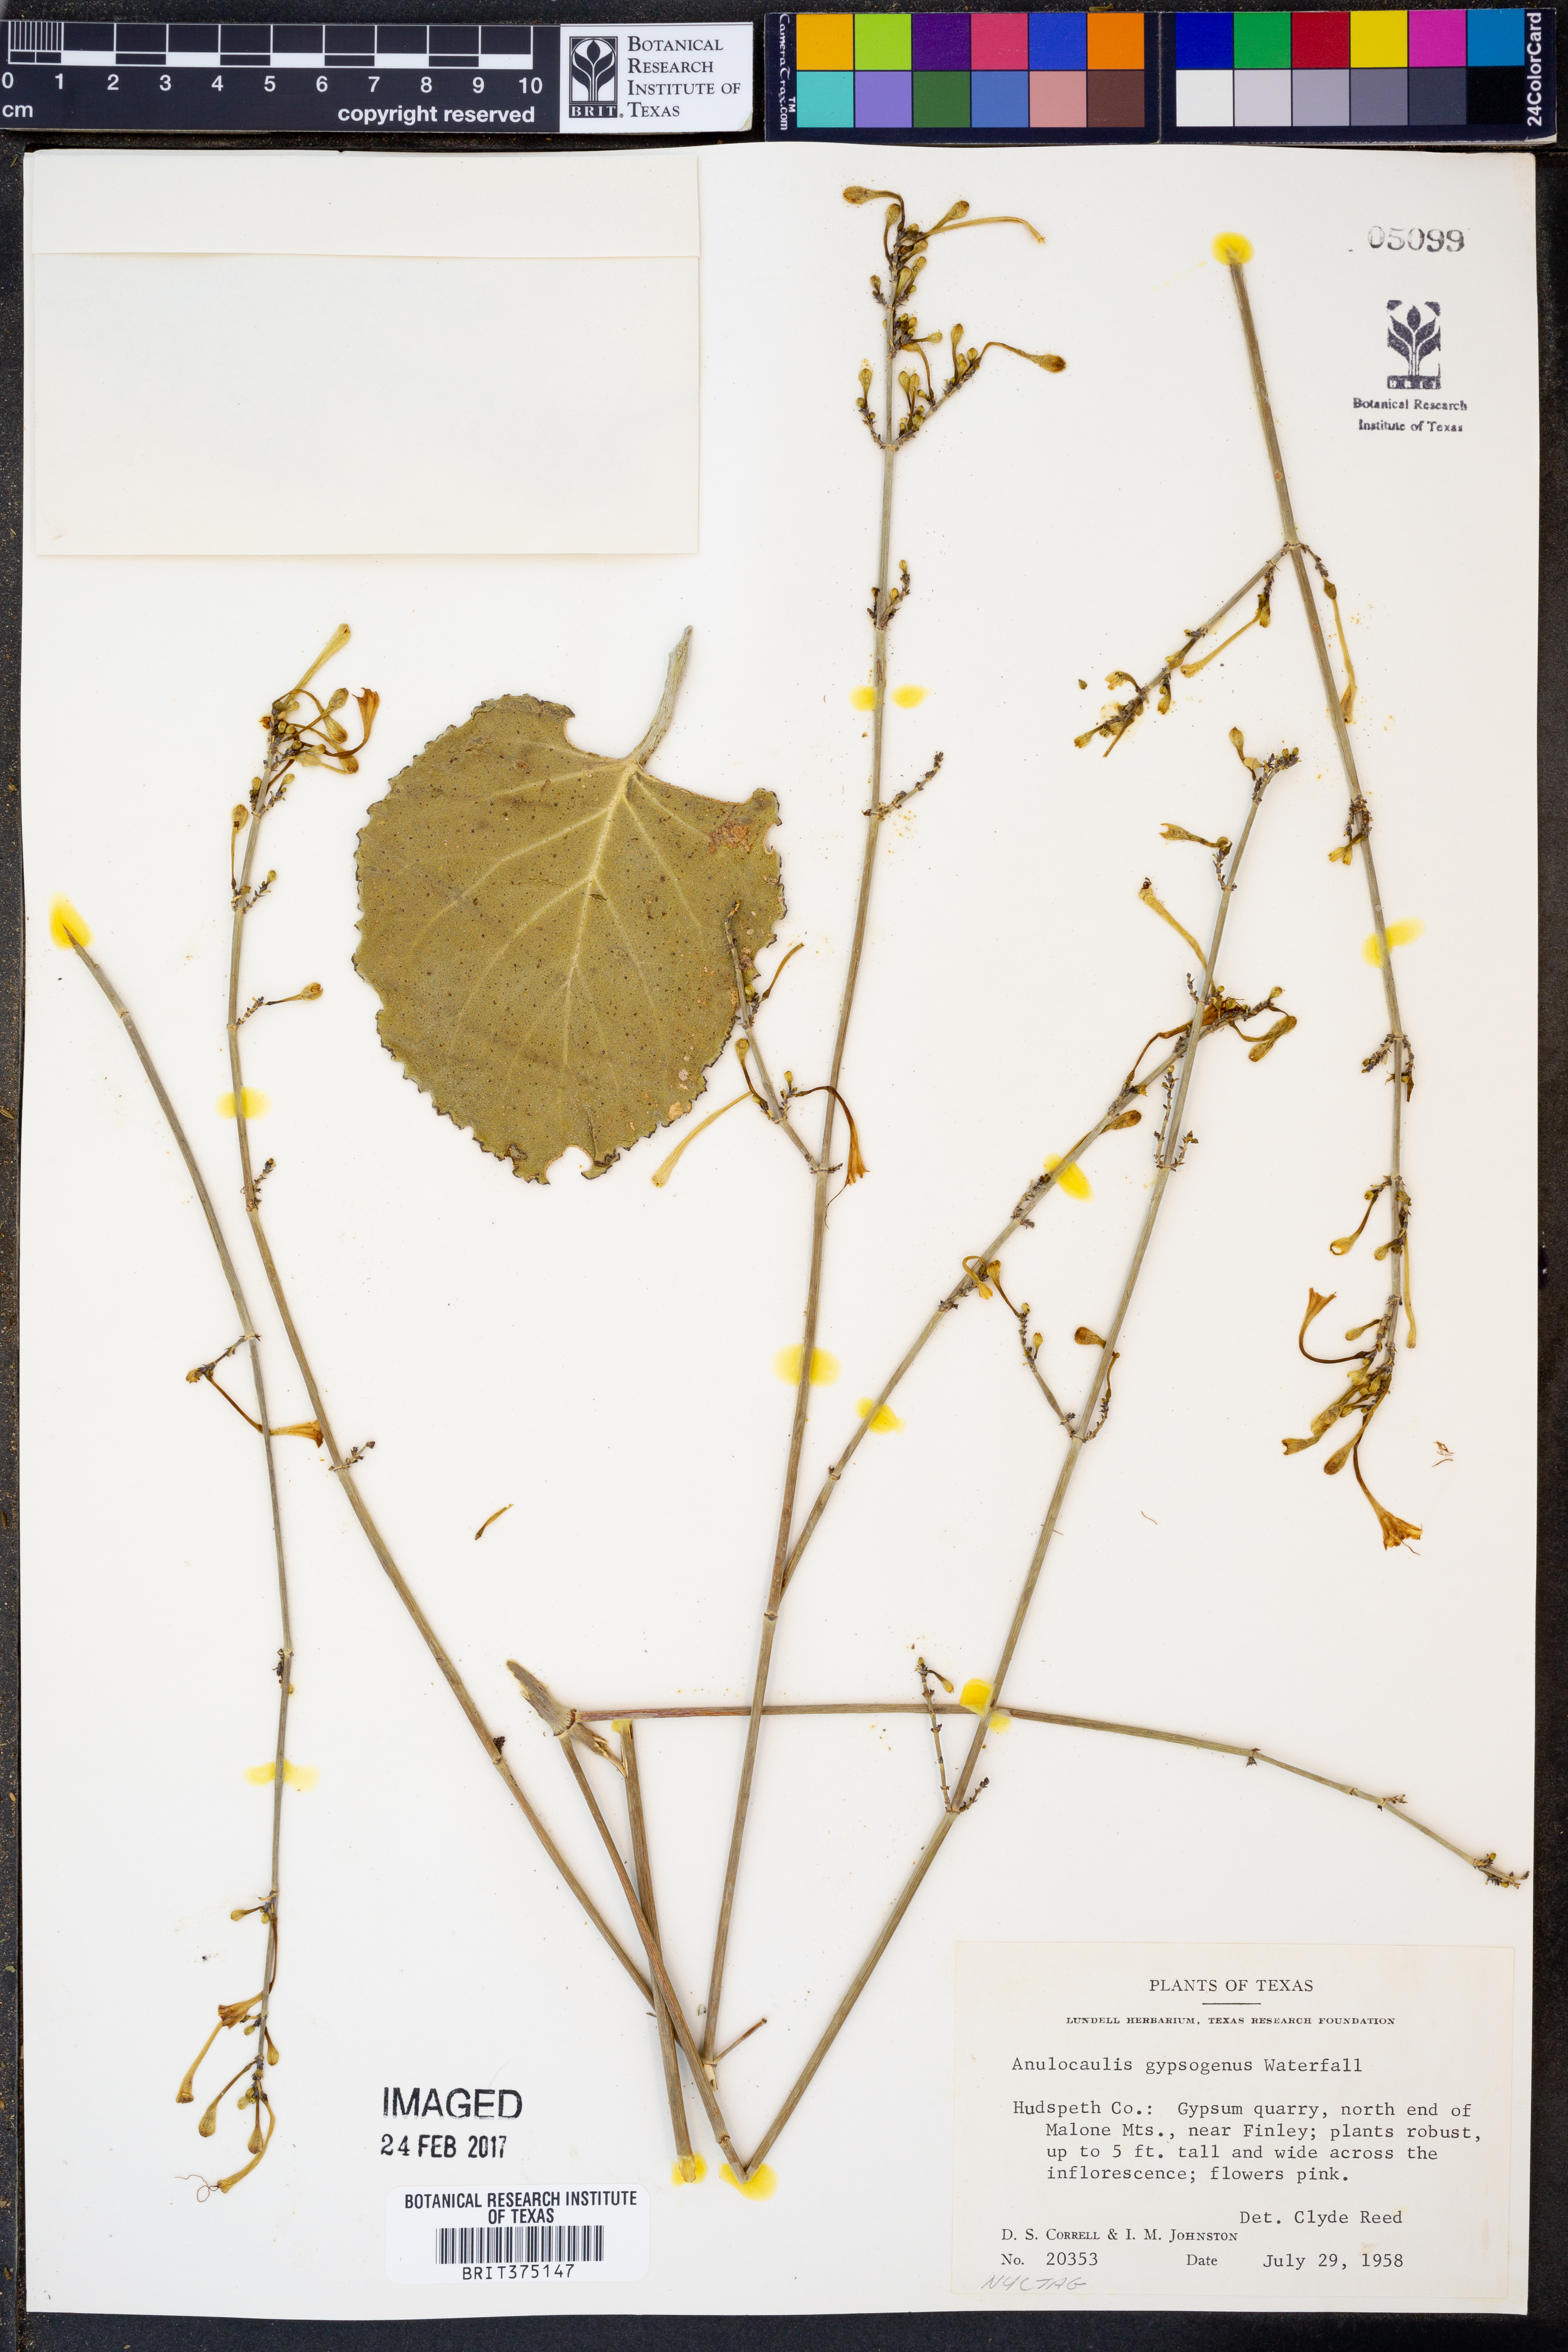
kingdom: Plantae
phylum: Tracheophyta
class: Magnoliopsida
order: Caryophyllales
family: Nyctaginaceae
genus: Anulocaulis
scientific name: Anulocaulis leiosolenus
